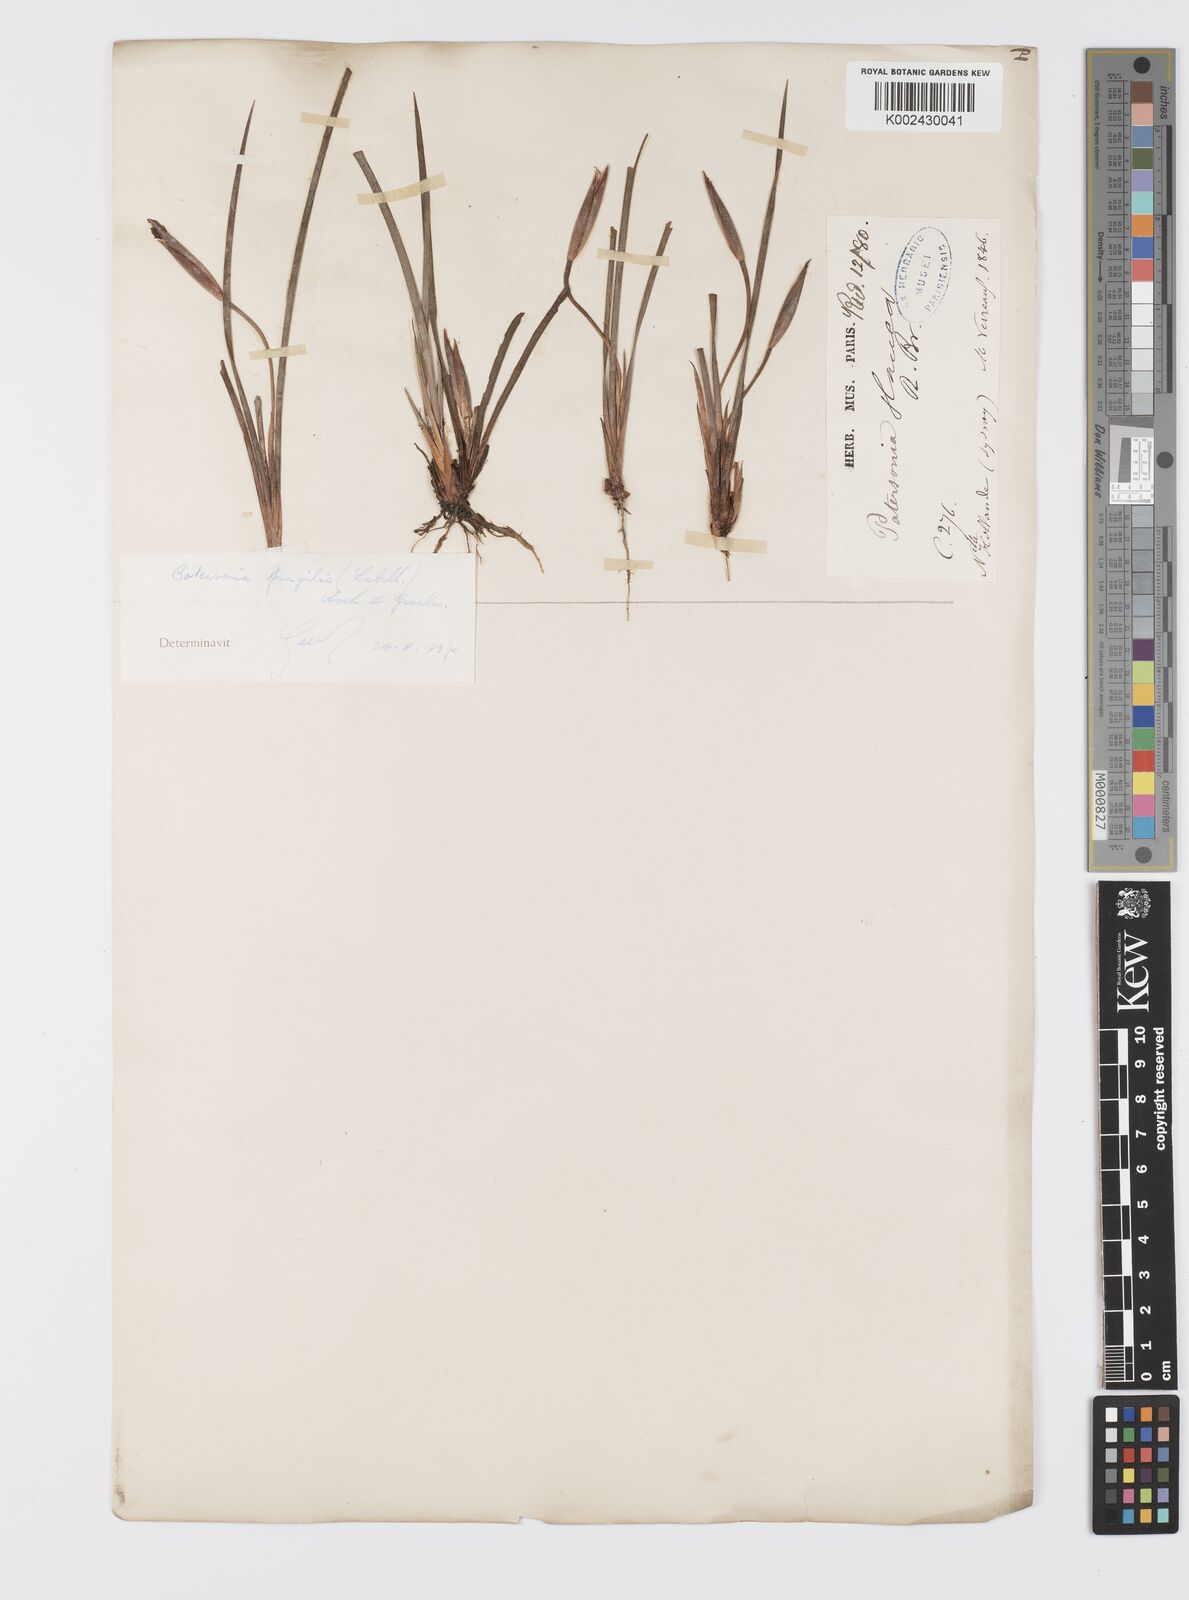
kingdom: Plantae
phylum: Tracheophyta
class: Liliopsida
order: Asparagales
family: Iridaceae
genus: Patersonia
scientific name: Patersonia fragilis
